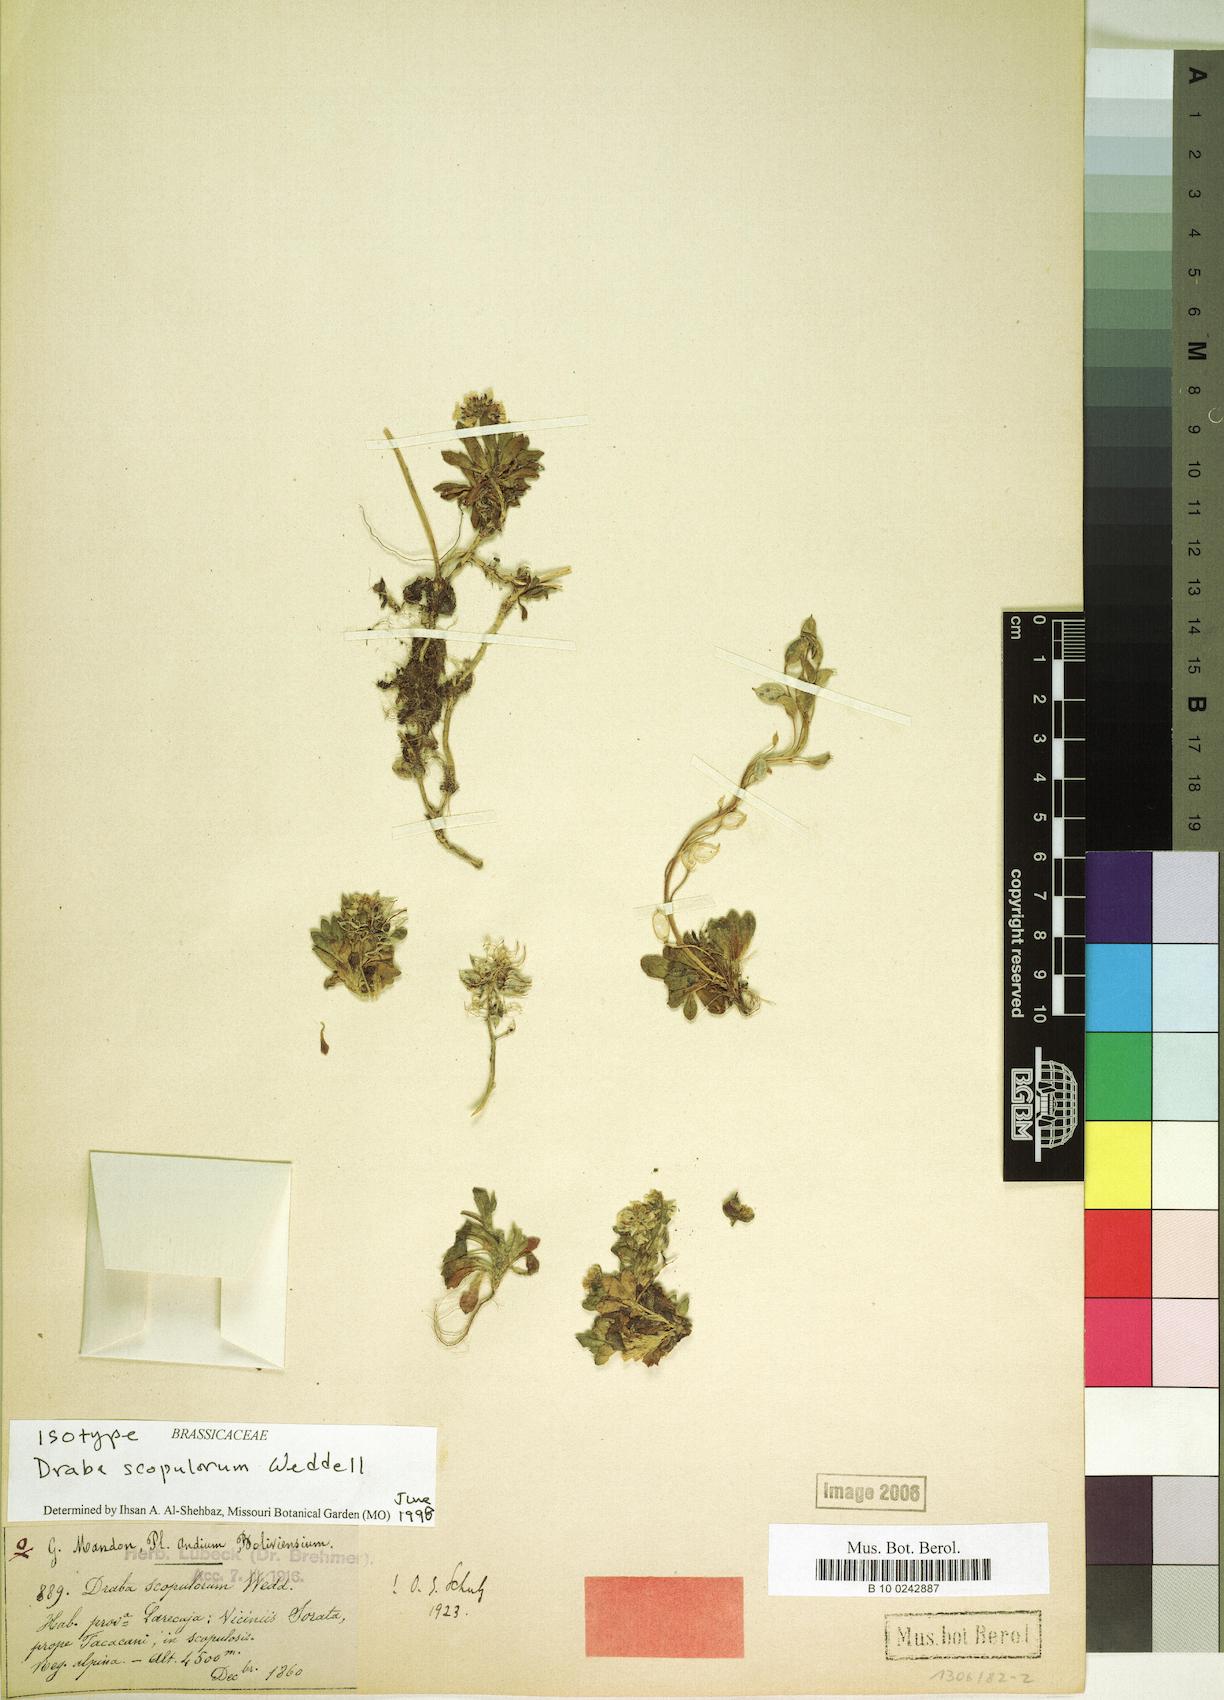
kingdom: Plantae
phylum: Tracheophyta
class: Magnoliopsida
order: Brassicales
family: Brassicaceae
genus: Draba
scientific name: Draba scopulorum
